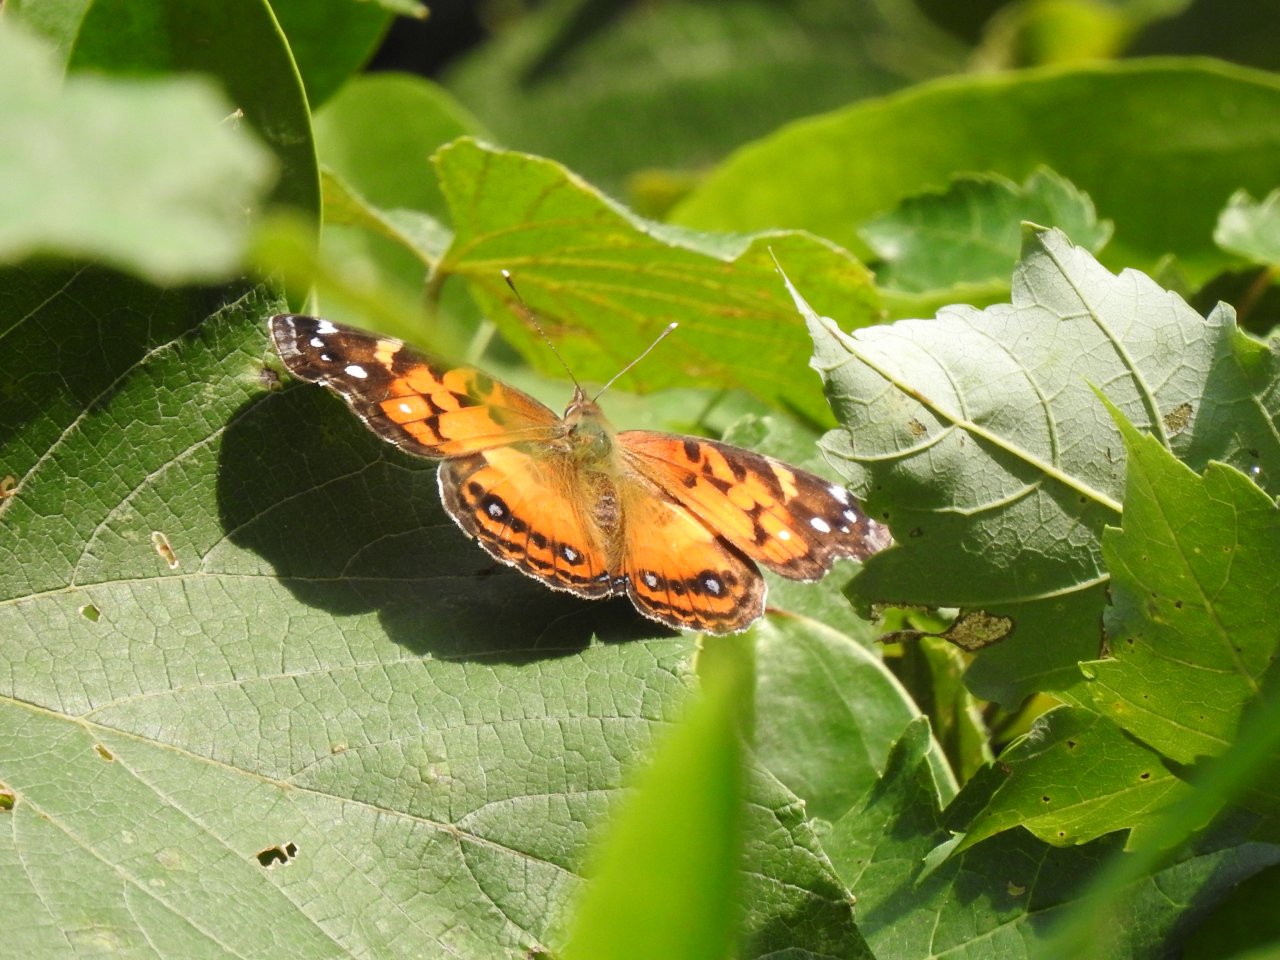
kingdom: Animalia
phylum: Arthropoda
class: Insecta
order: Lepidoptera
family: Nymphalidae
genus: Vanessa
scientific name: Vanessa virginiensis
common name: American Lady
